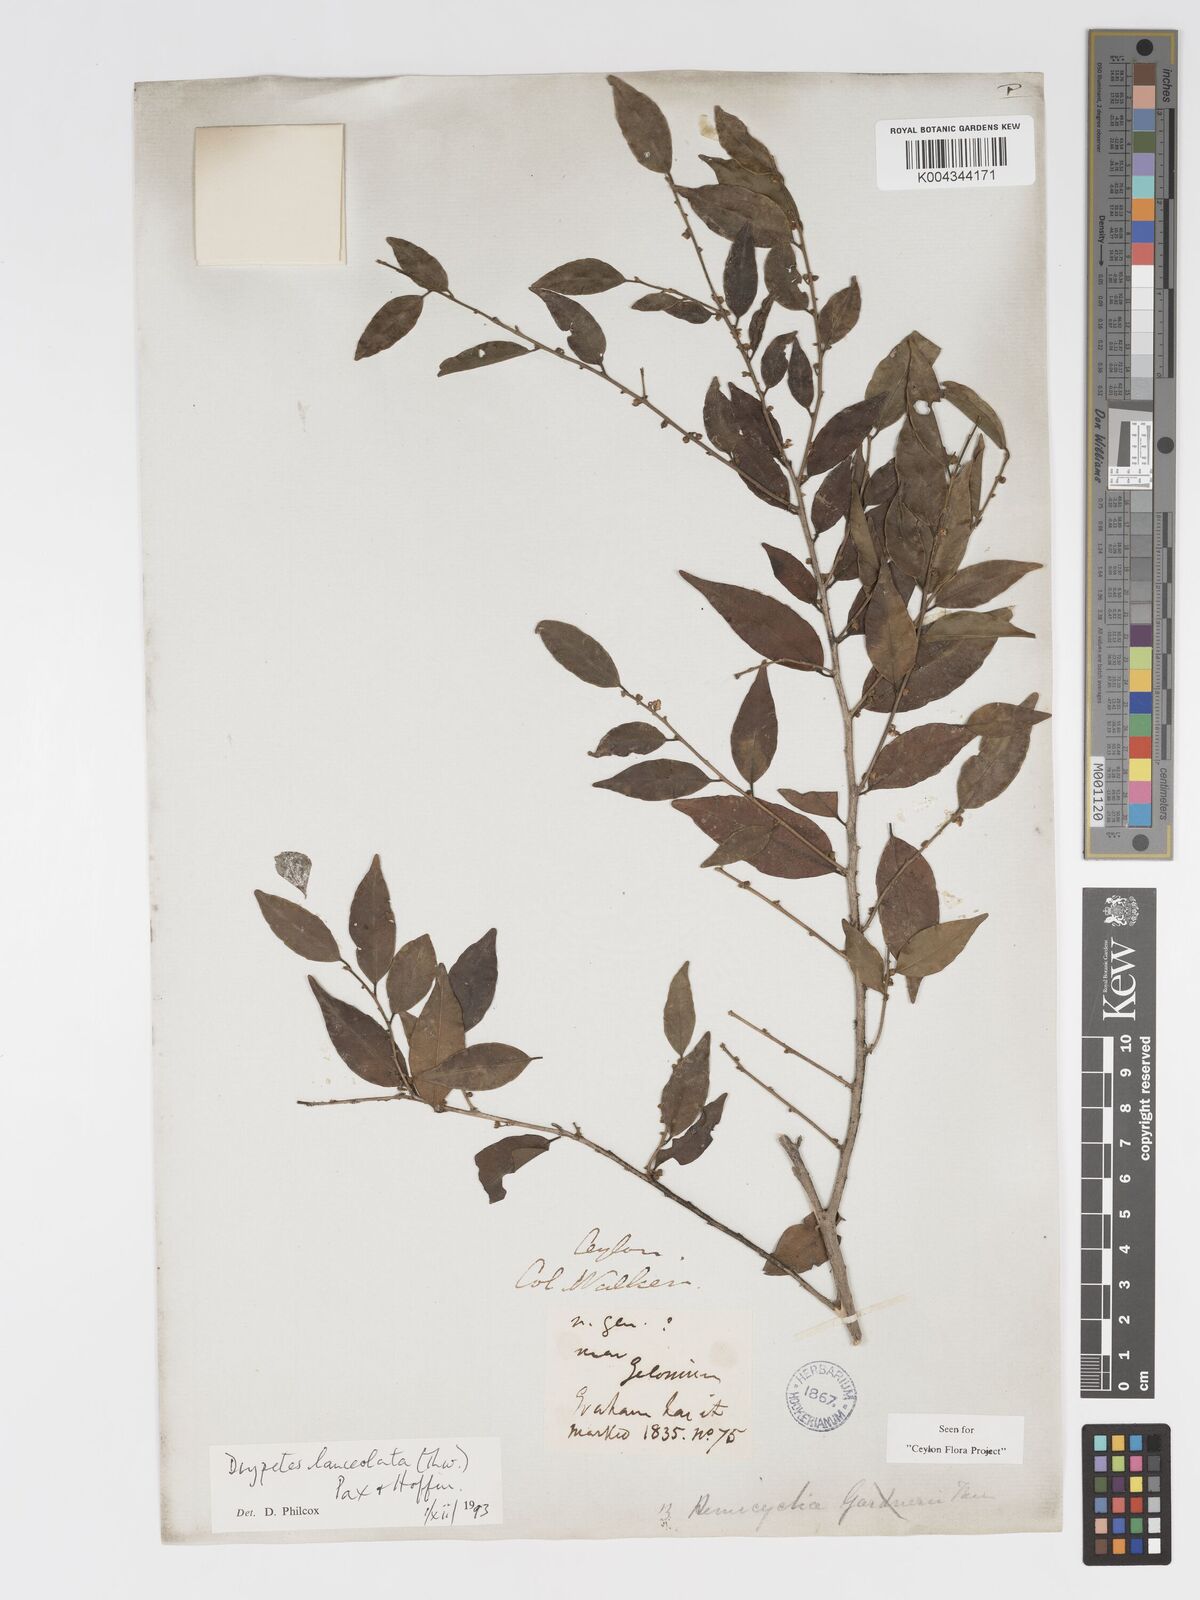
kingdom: Plantae
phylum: Tracheophyta
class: Magnoliopsida
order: Malpighiales
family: Putranjivaceae
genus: Drypetes
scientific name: Drypetes sumatrana
